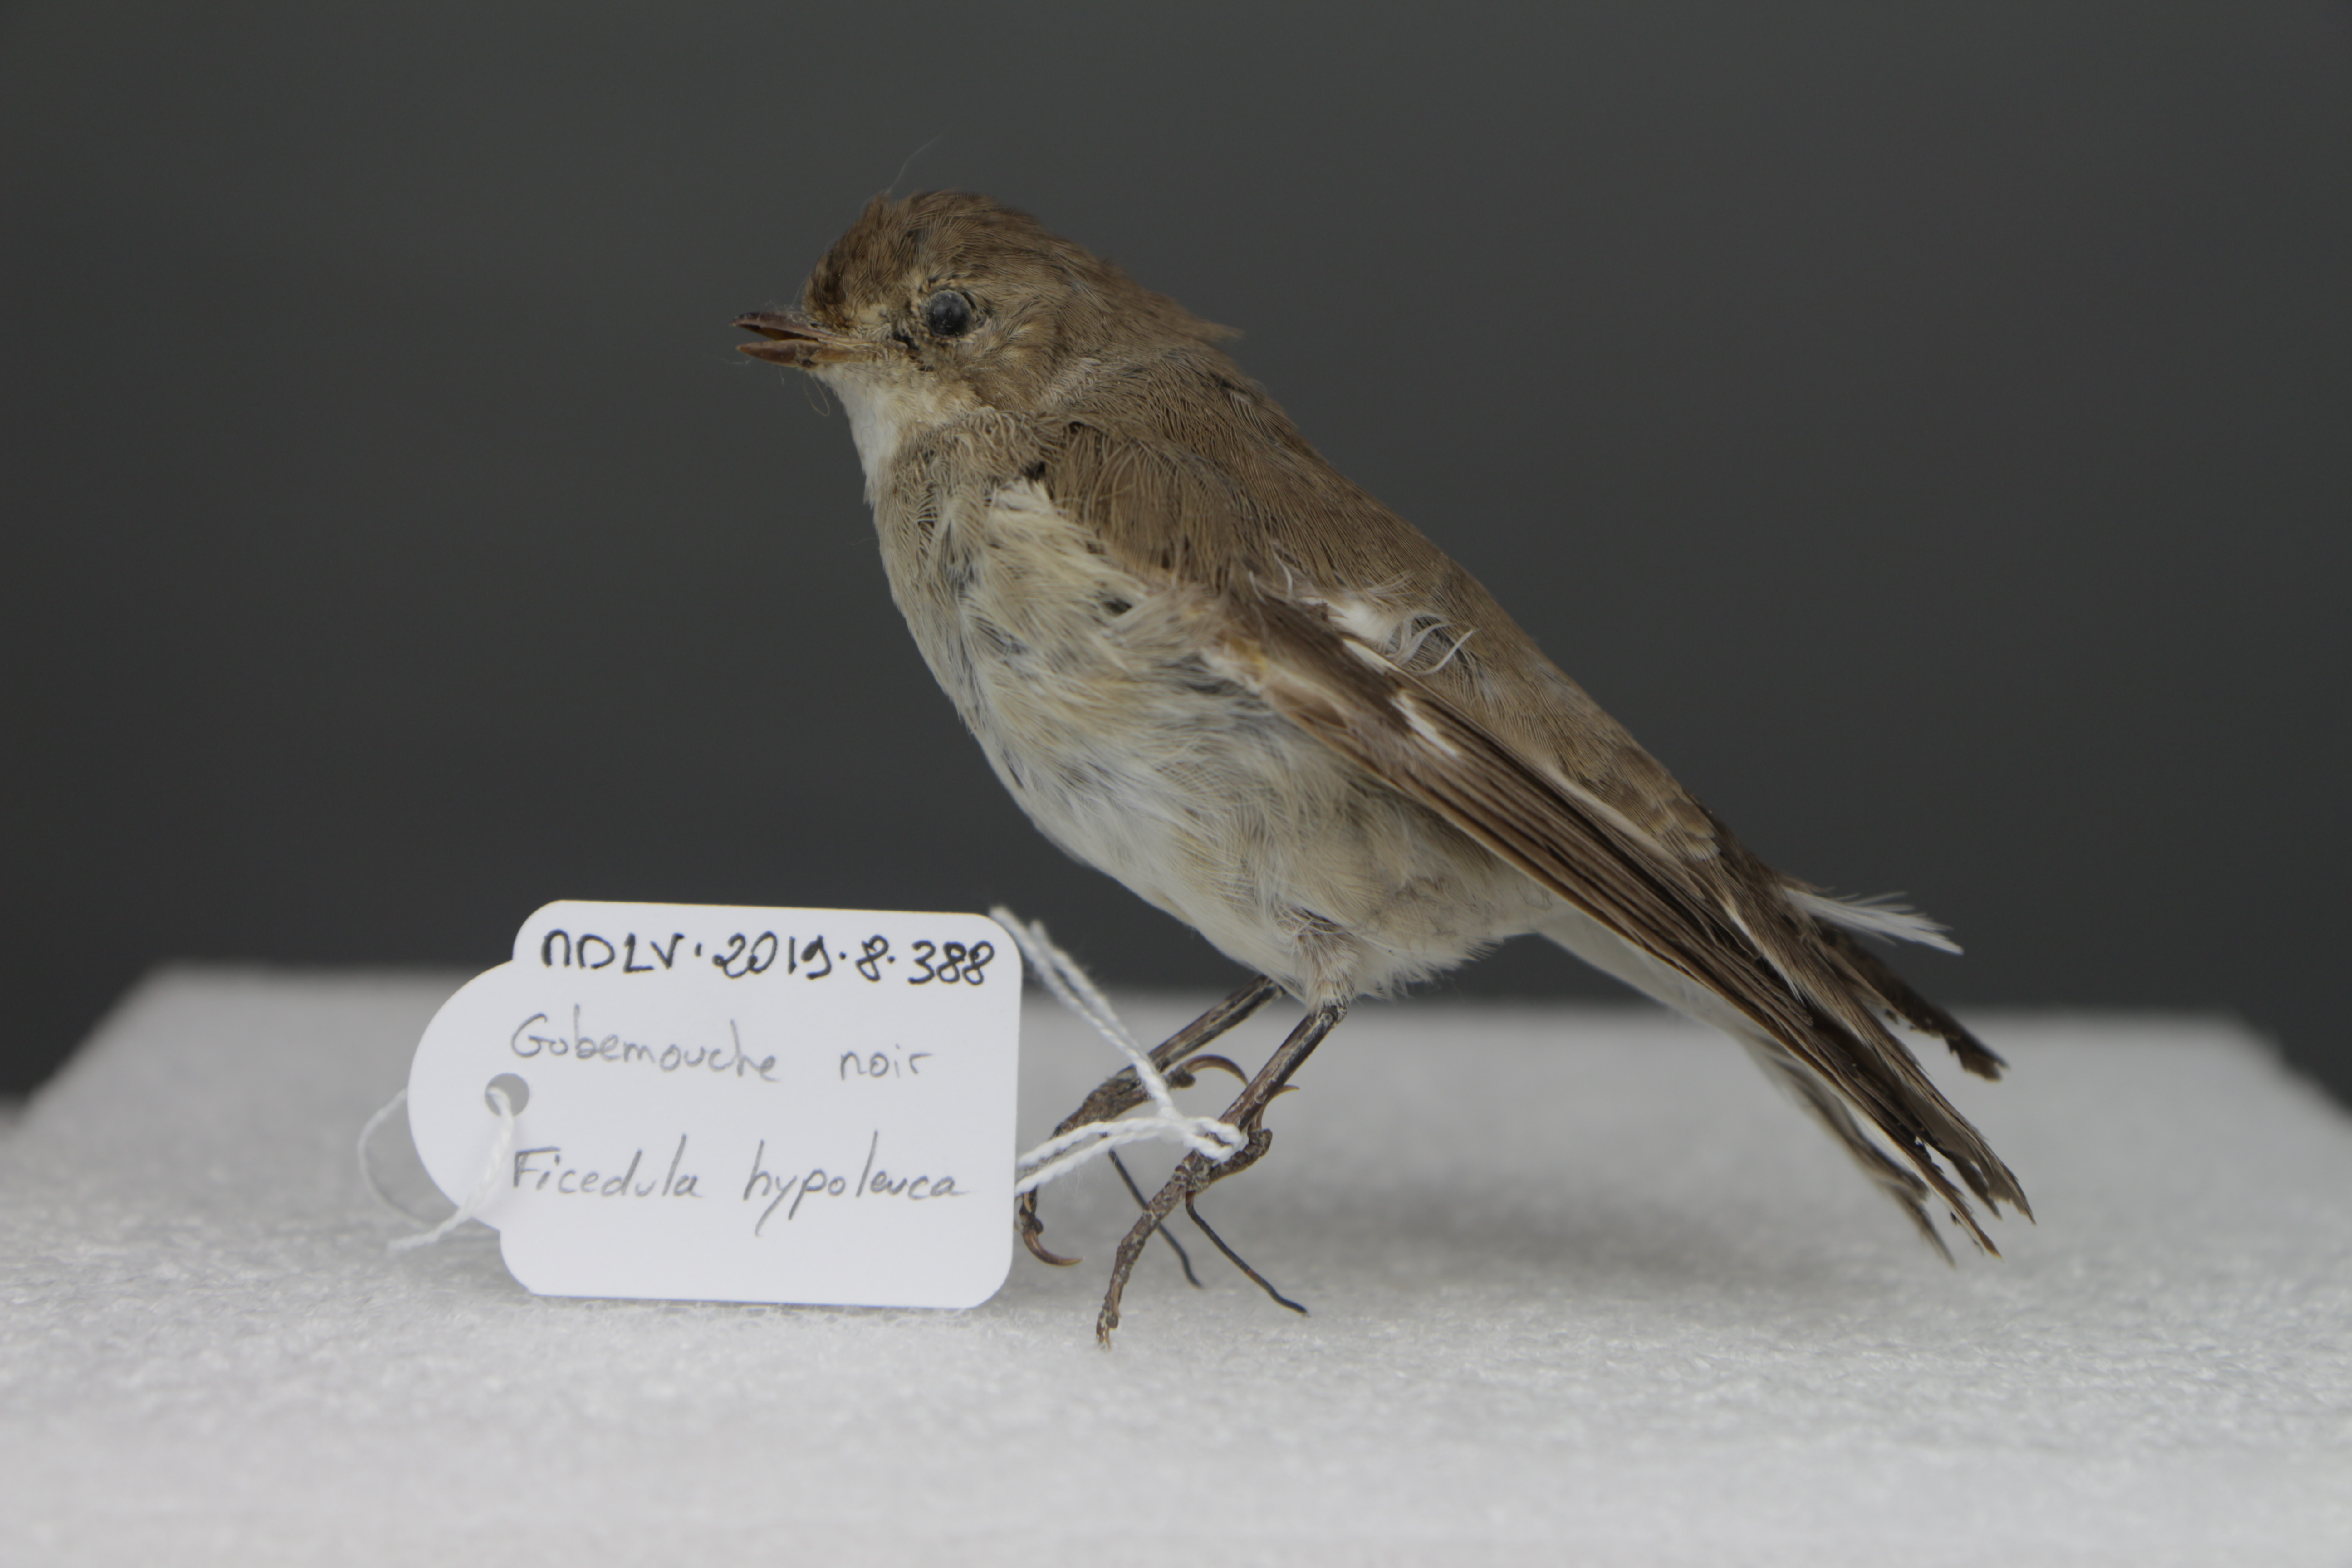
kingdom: Animalia
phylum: Chordata
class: Aves
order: Passeriformes
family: Muscicapidae
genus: Ficedula
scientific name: Ficedula hypoleuca
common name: European pied flycatcher
